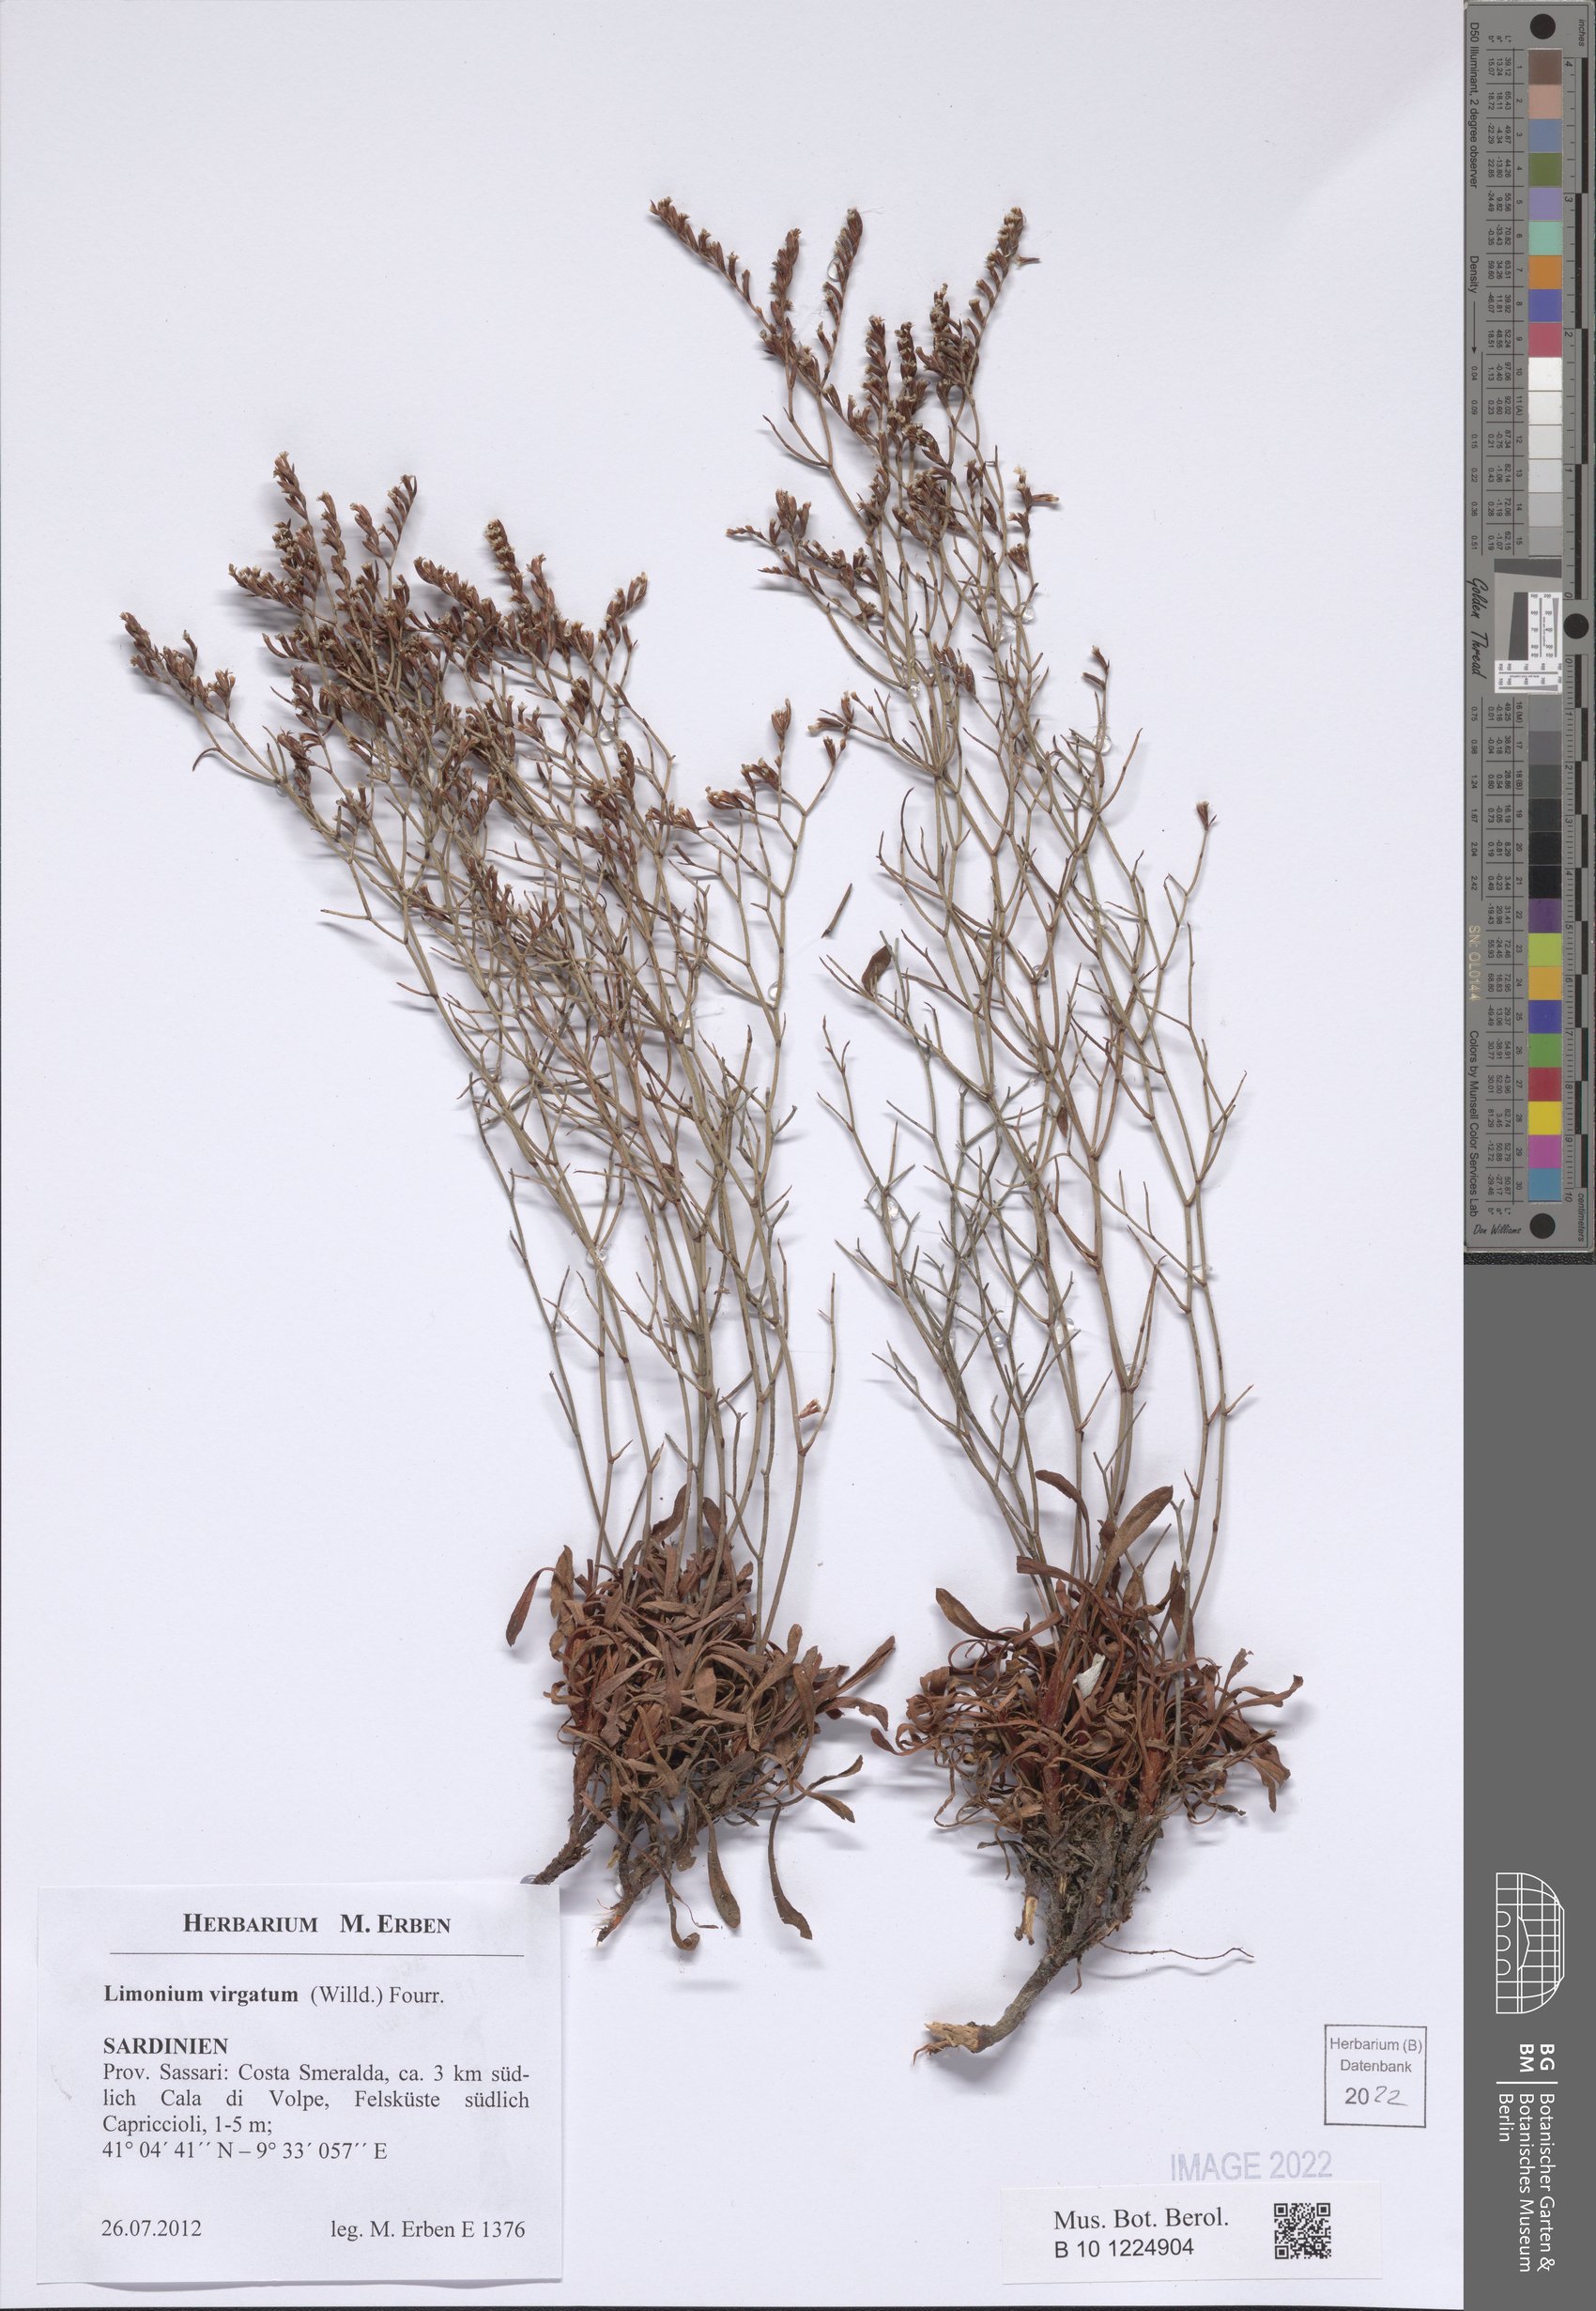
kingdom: Plantae
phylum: Tracheophyta
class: Magnoliopsida
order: Caryophyllales
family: Plumbaginaceae
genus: Limonium
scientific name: Limonium virgatum
